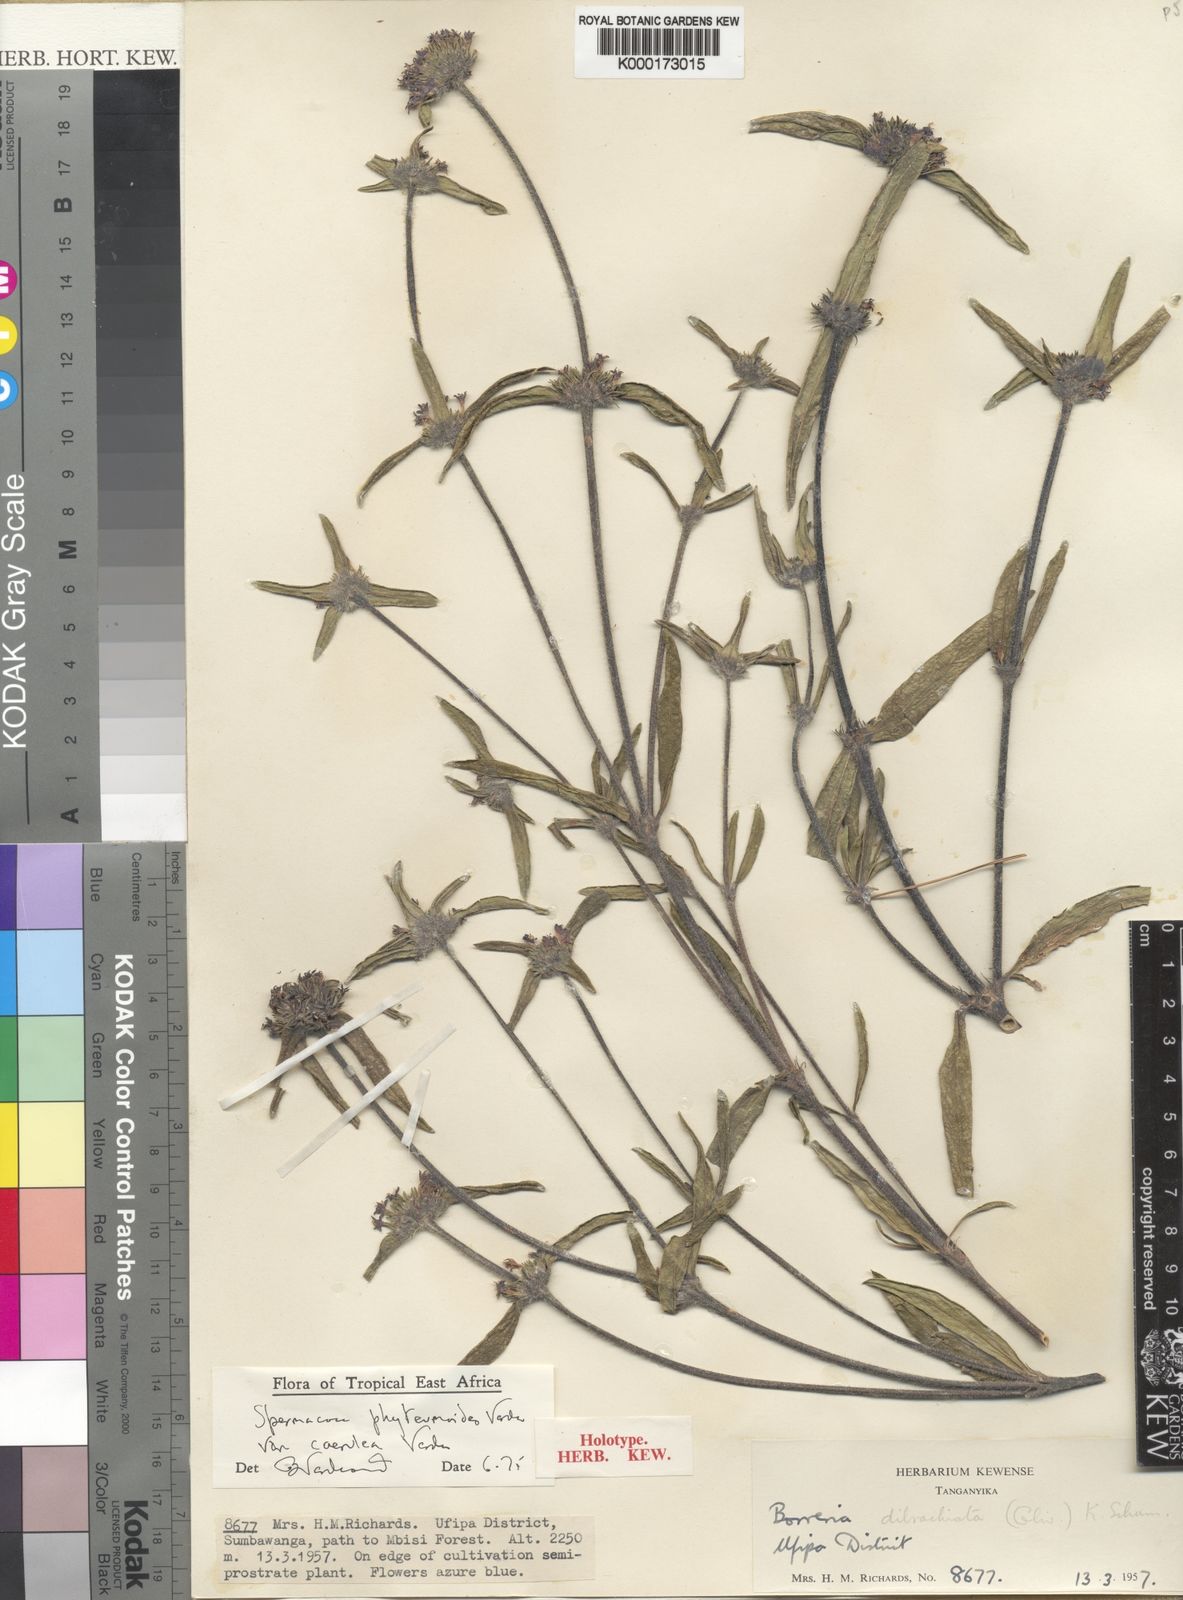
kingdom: Plantae
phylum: Tracheophyta
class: Magnoliopsida
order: Gentianales
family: Rubiaceae
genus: Spermacoce
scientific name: Spermacoce phyteumoides
